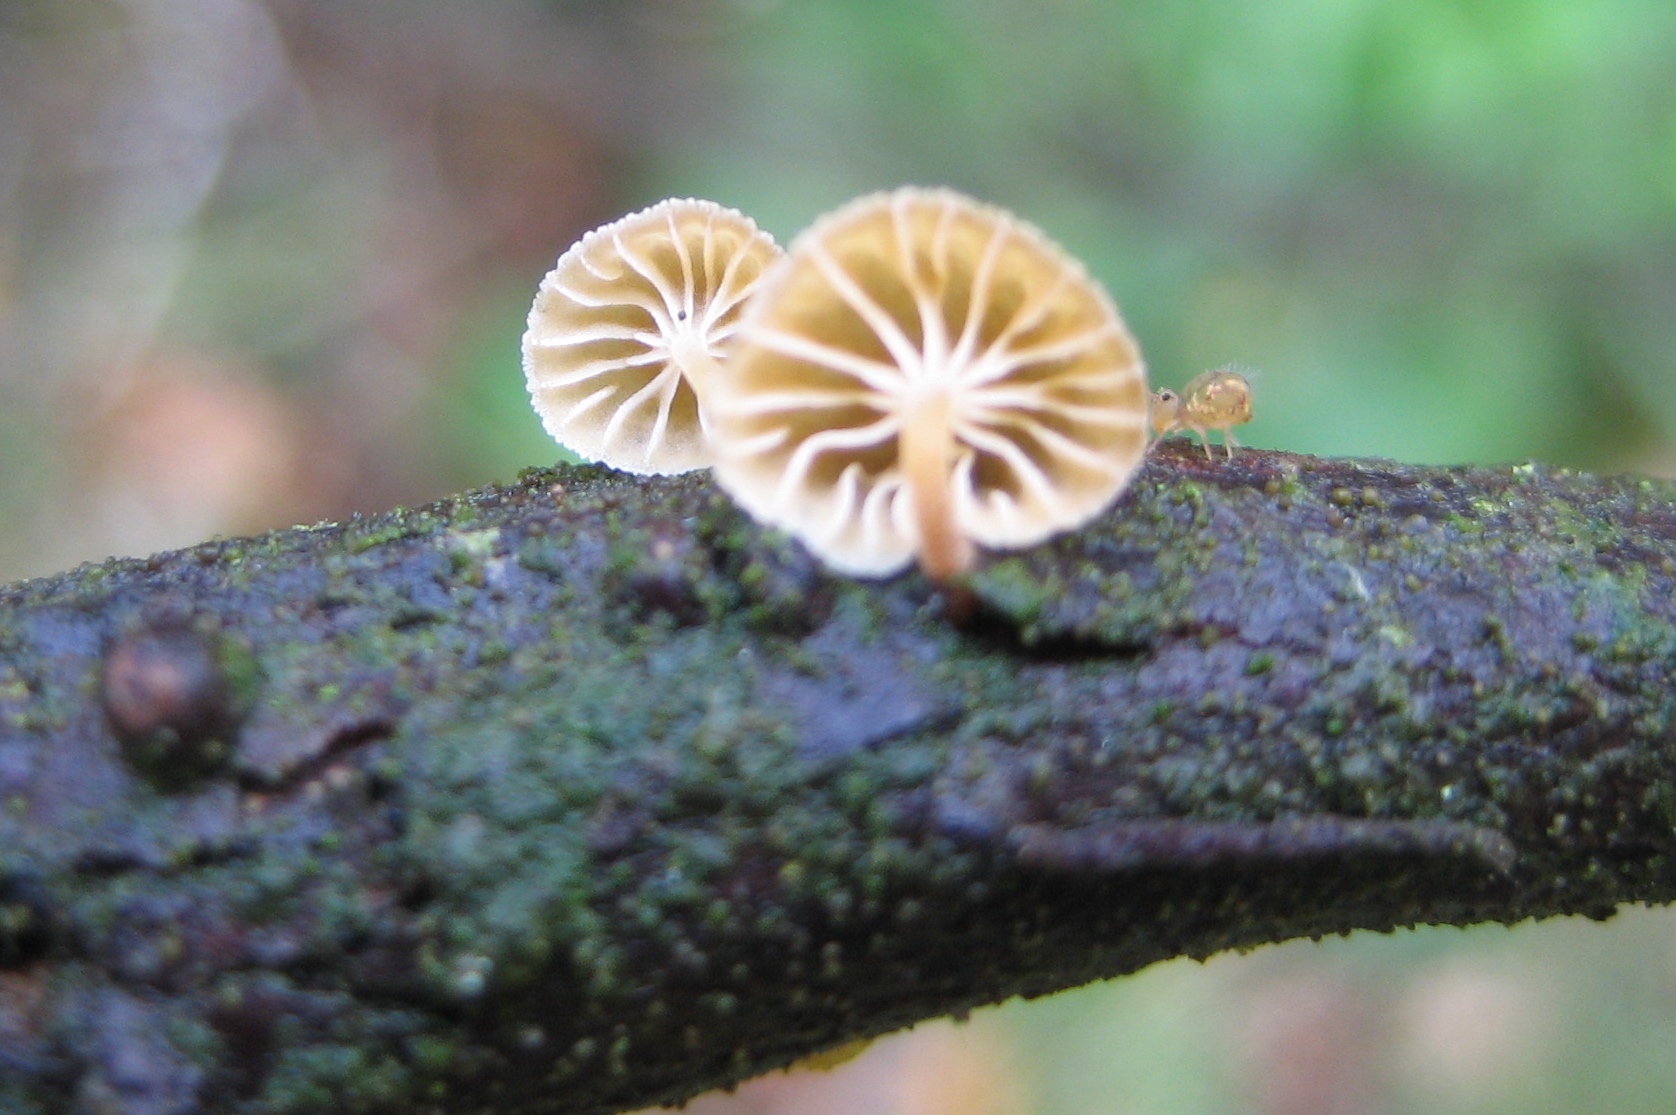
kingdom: Fungi
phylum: Basidiomycota
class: Agaricomycetes
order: Agaricales
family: Mycenaceae
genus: Mycena
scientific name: Mycena juniperina
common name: ene-Huesvamp
